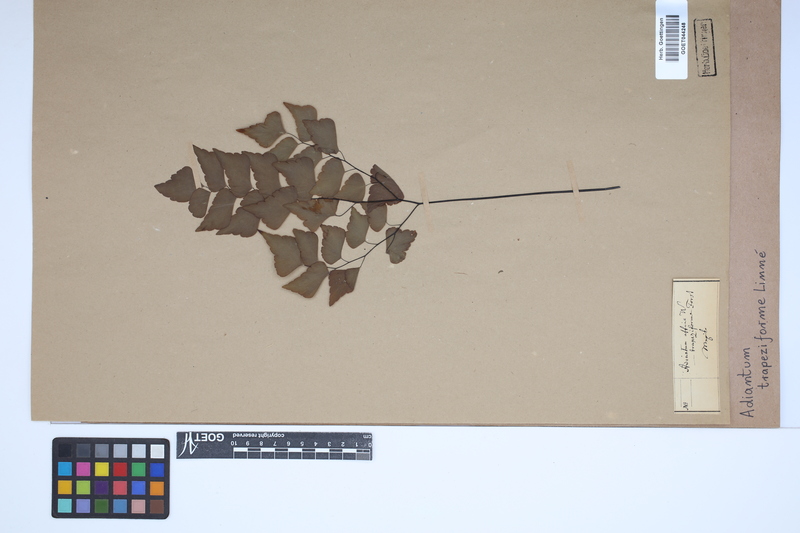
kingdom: Plantae
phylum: Tracheophyta
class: Polypodiopsida
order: Polypodiales
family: Pteridaceae
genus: Adiantum
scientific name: Adiantum trapeziforme
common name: Diamond maidenhair
